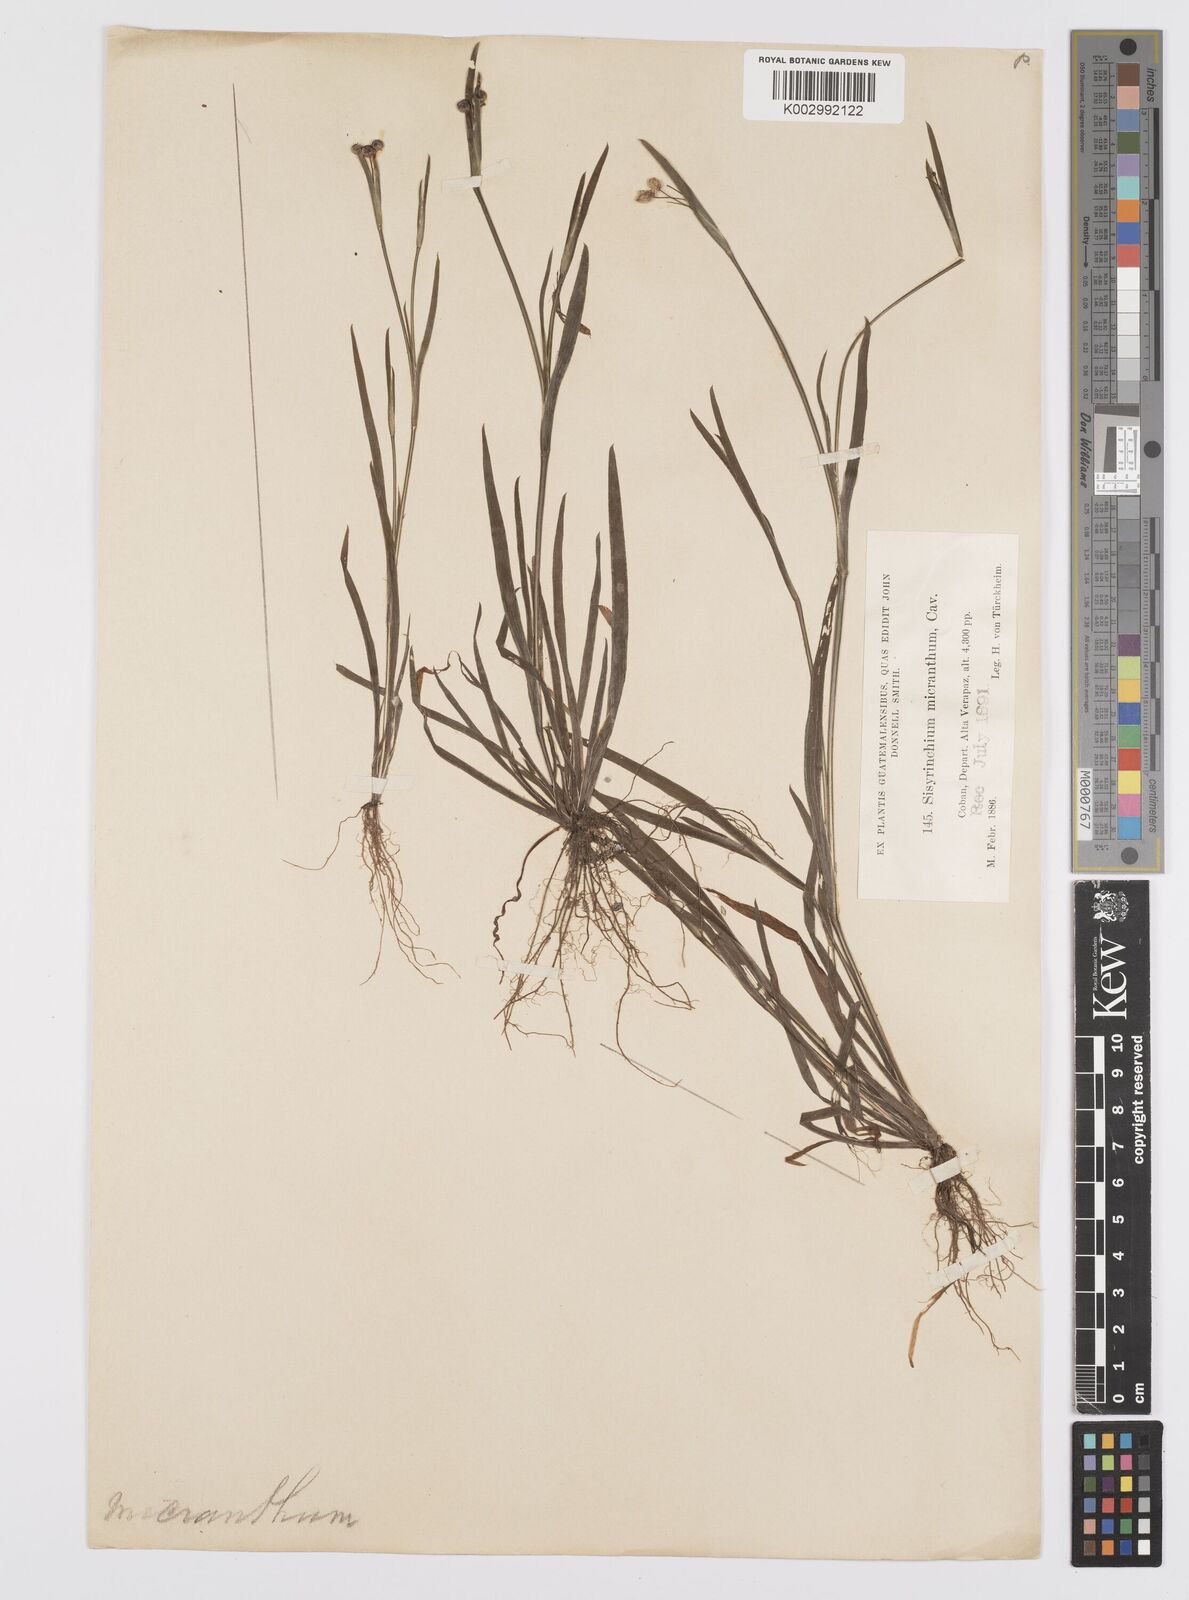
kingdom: Plantae
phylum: Tracheophyta
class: Liliopsida
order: Asparagales
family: Iridaceae
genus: Sisyrinchium
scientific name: Sisyrinchium micranthum
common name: Bermuda pigroot
